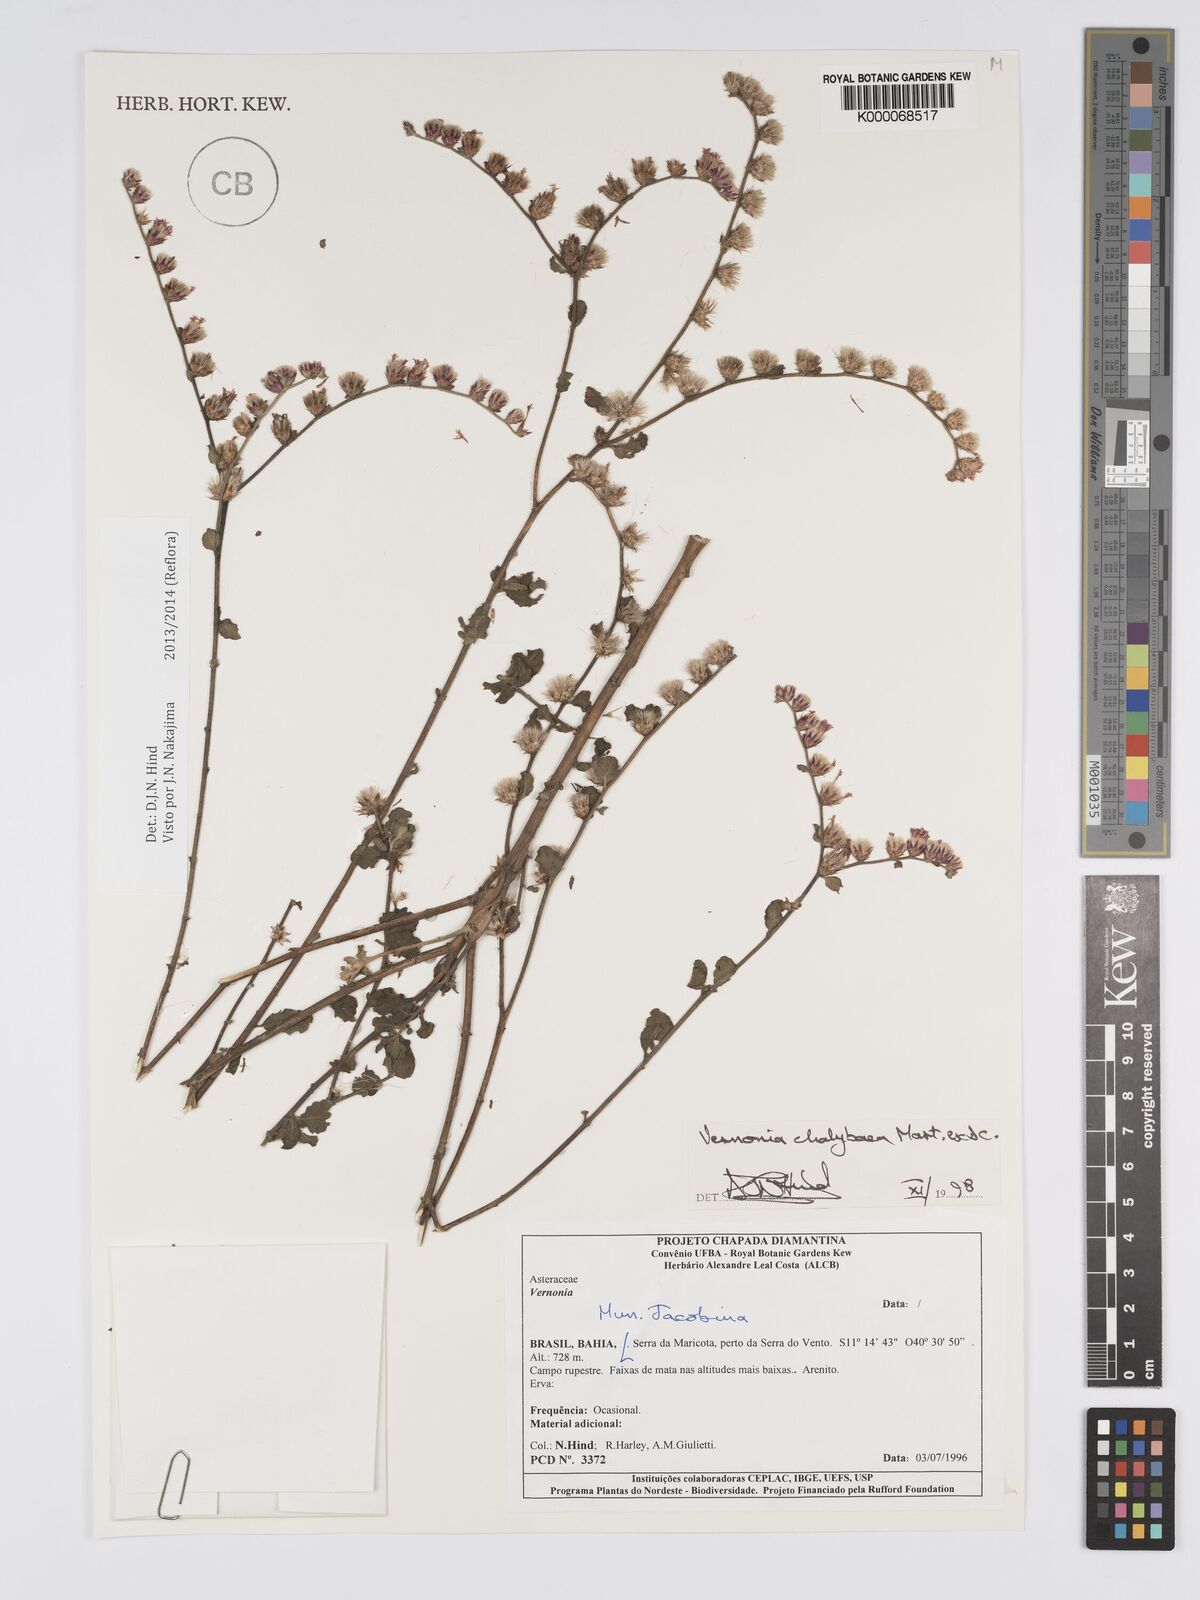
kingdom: Plantae
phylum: Tracheophyta
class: Magnoliopsida
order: Asterales
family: Asteraceae
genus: Lepidaploa
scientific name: Lepidaploa chalybaea
